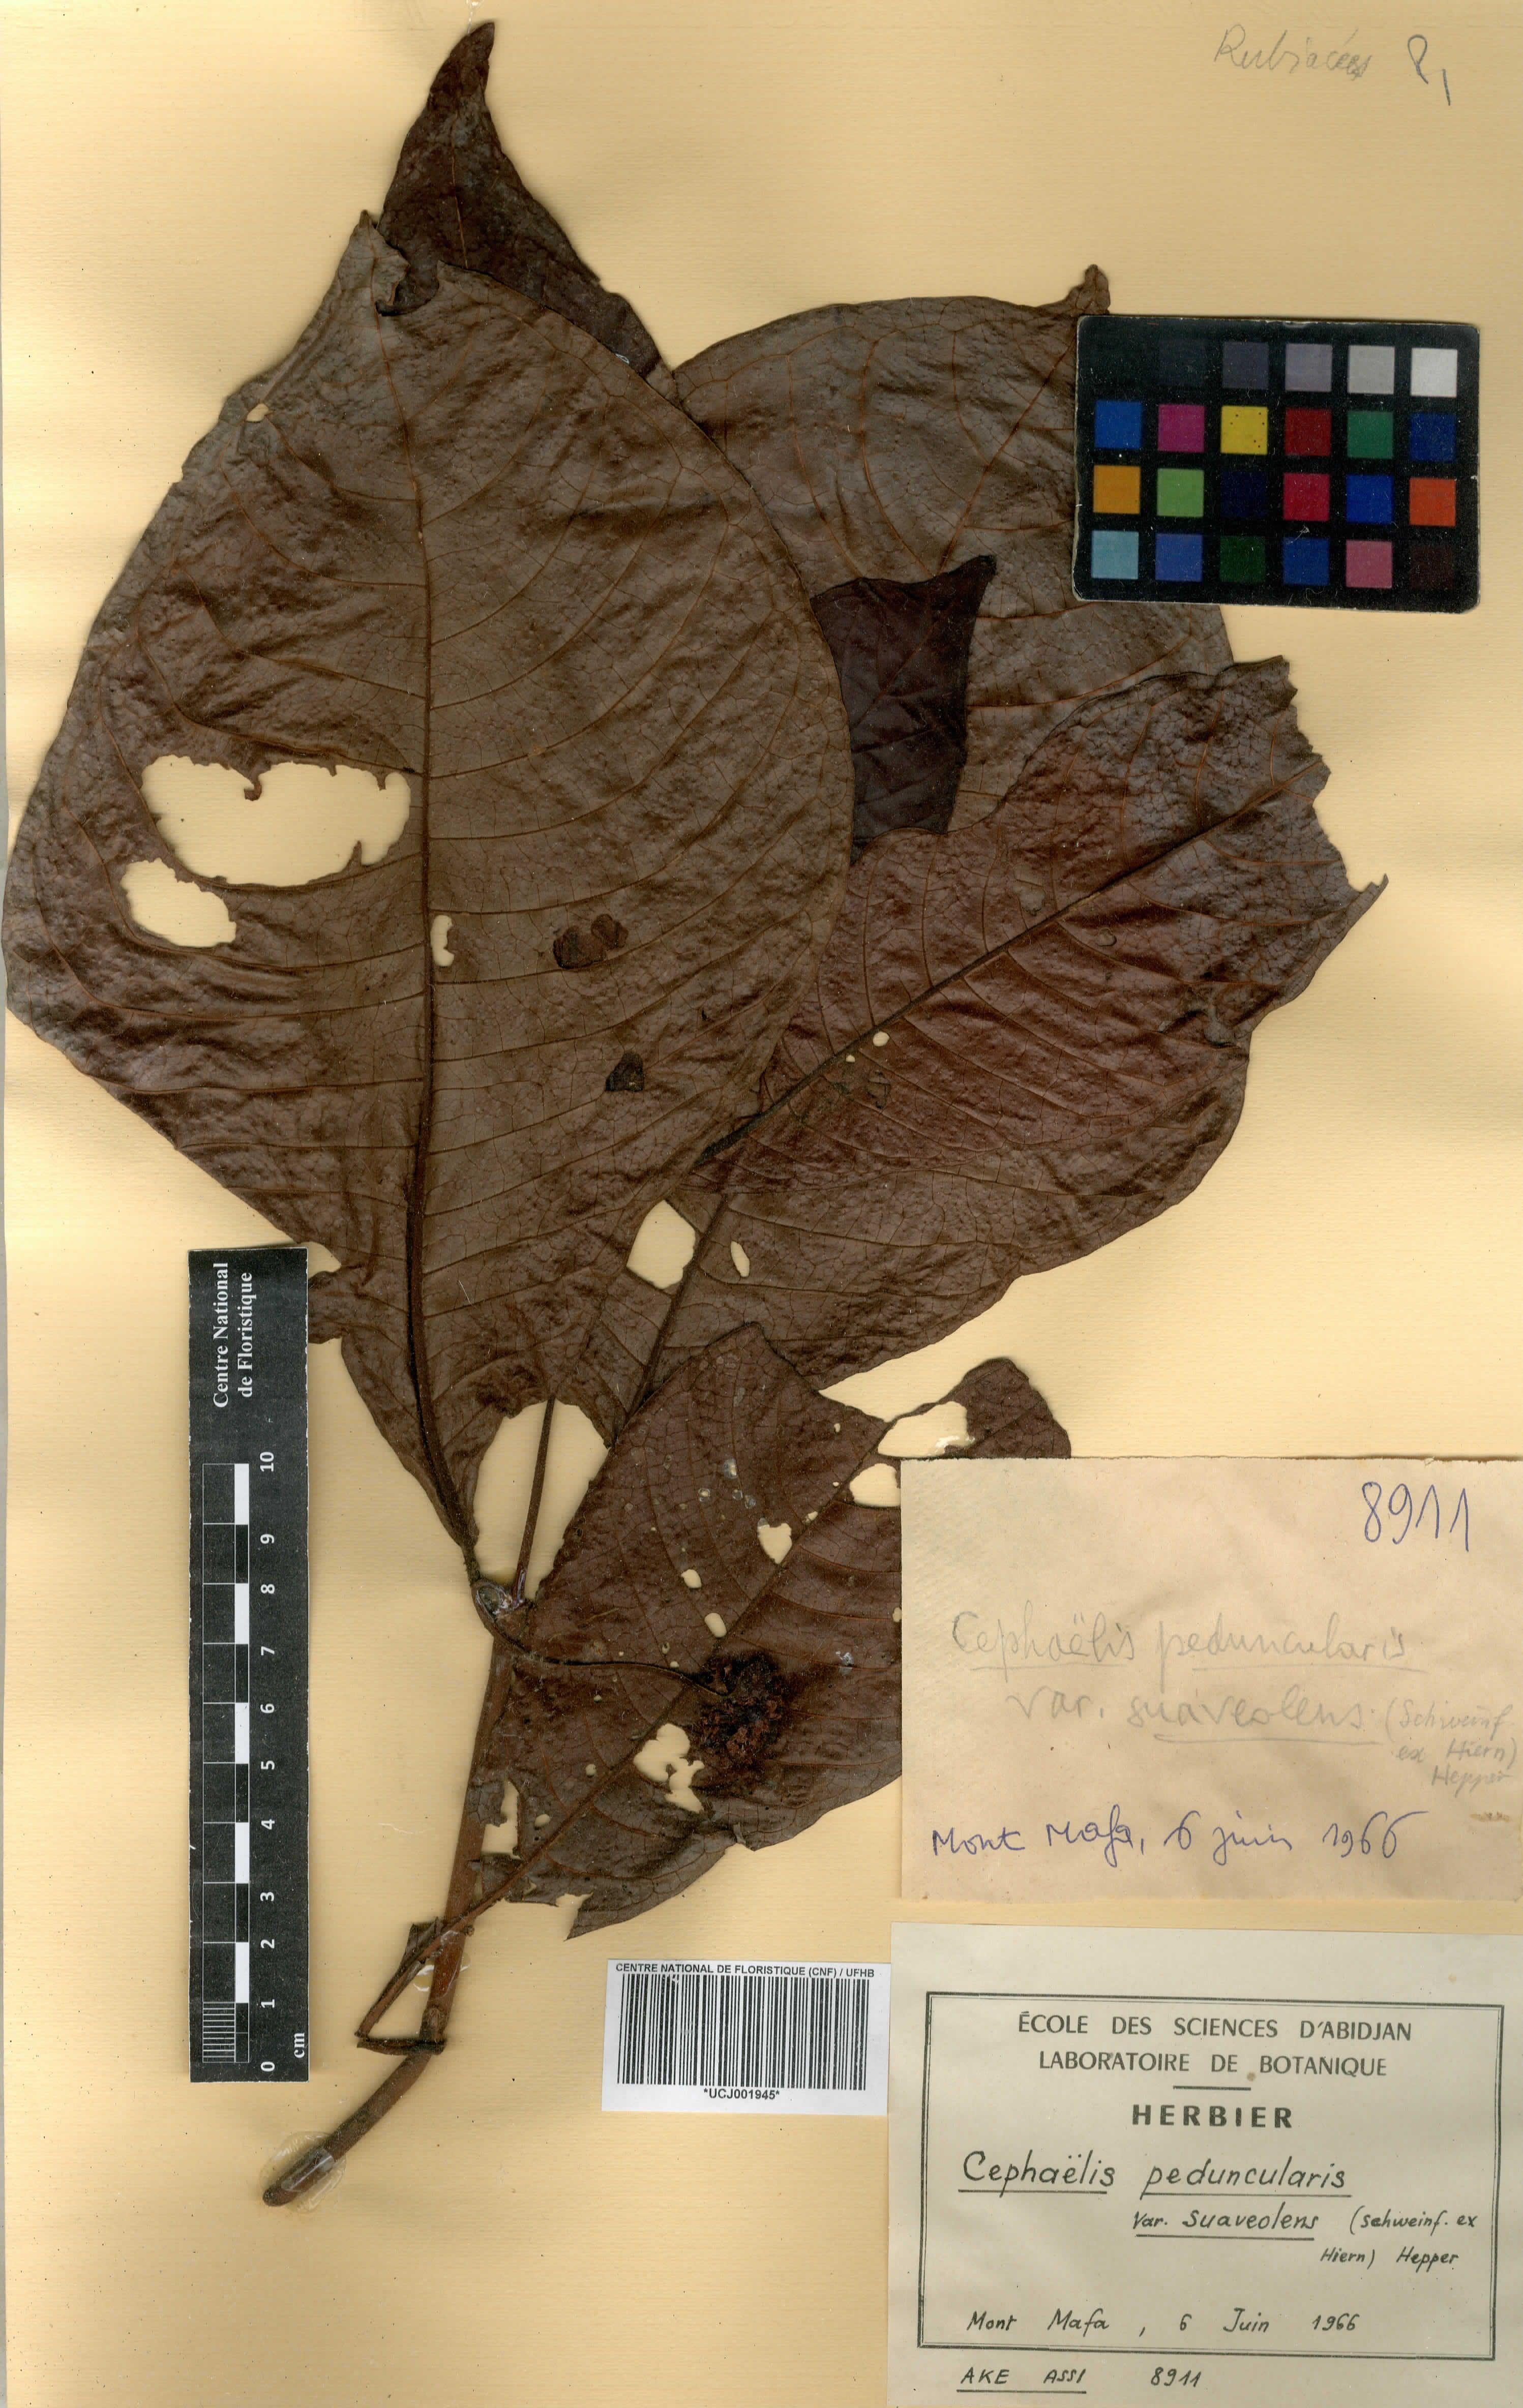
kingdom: Plantae
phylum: Tracheophyta
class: Magnoliopsida
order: Gentianales
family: Rubiaceae
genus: Psychotria
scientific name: Psychotria peduncularis
